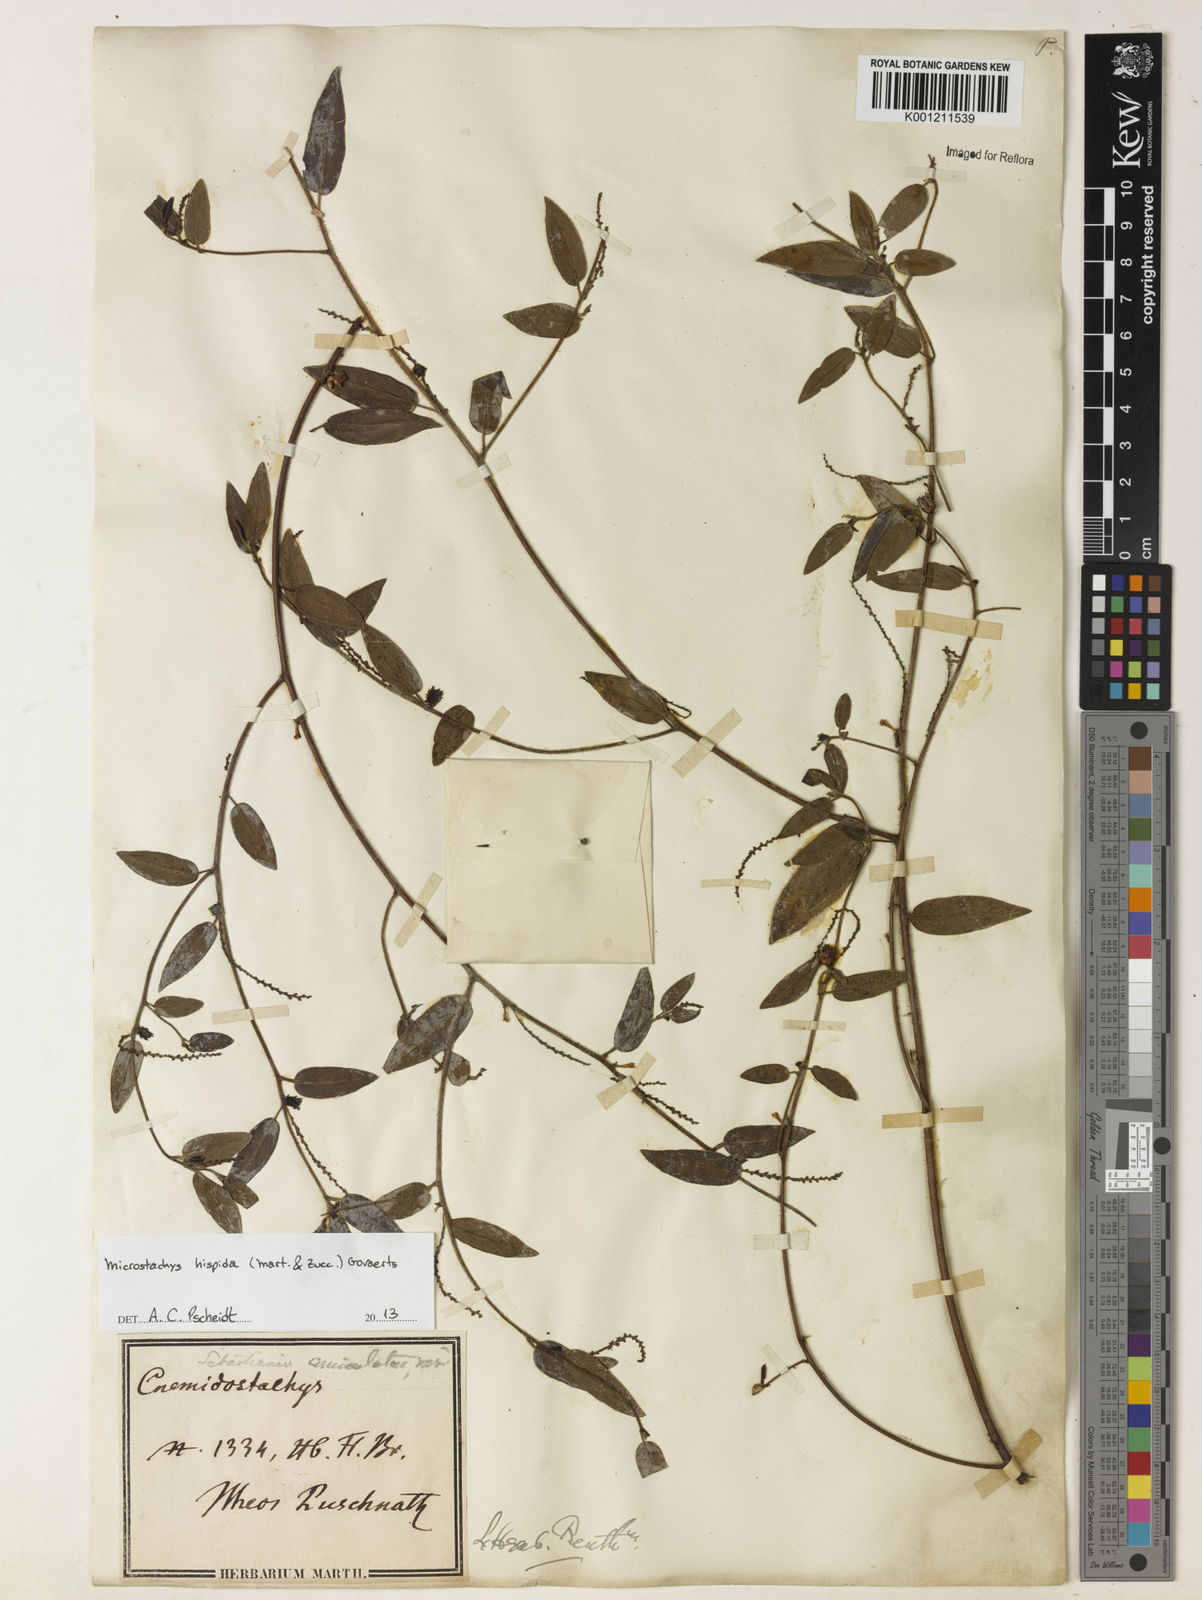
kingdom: Plantae
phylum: Tracheophyta
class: Magnoliopsida
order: Malpighiales
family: Euphorbiaceae
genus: Microstachys
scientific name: Microstachys hispida
